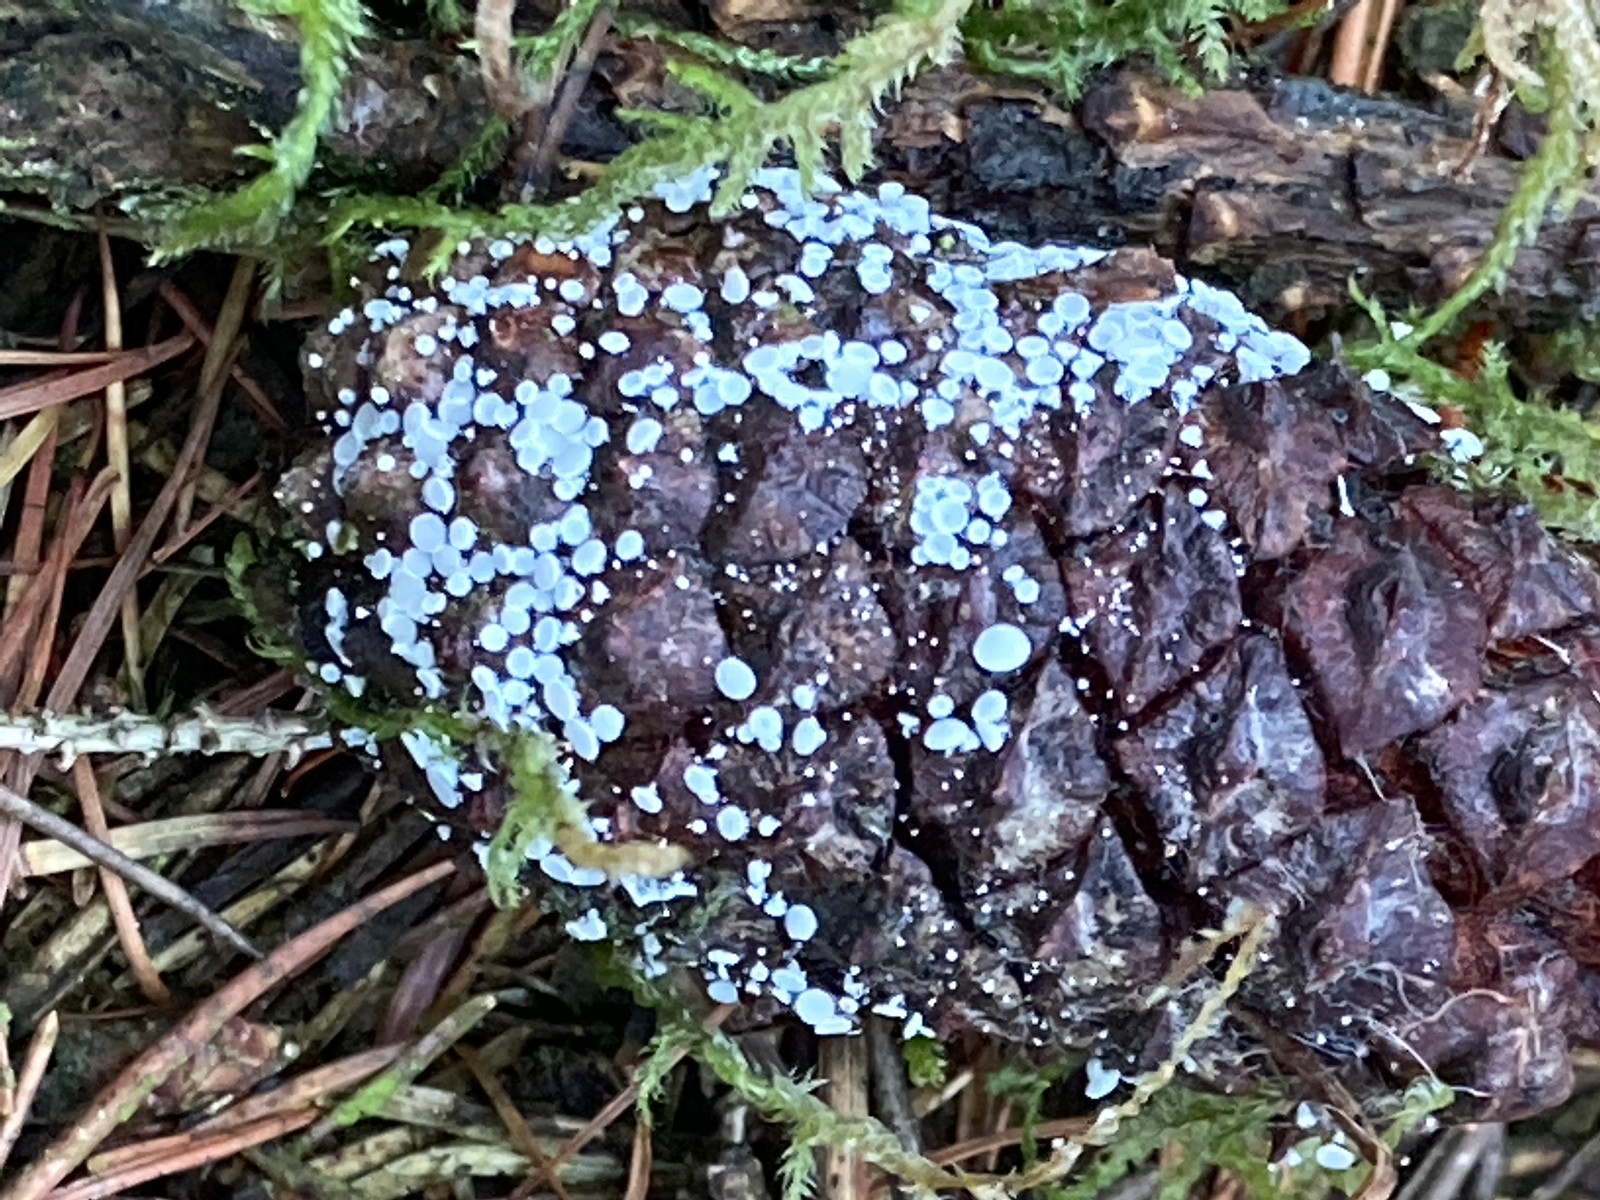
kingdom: Fungi
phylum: Ascomycota
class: Leotiomycetes
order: Helotiales
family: Lachnaceae
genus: Lachnum
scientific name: Lachnum
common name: frynseskive
